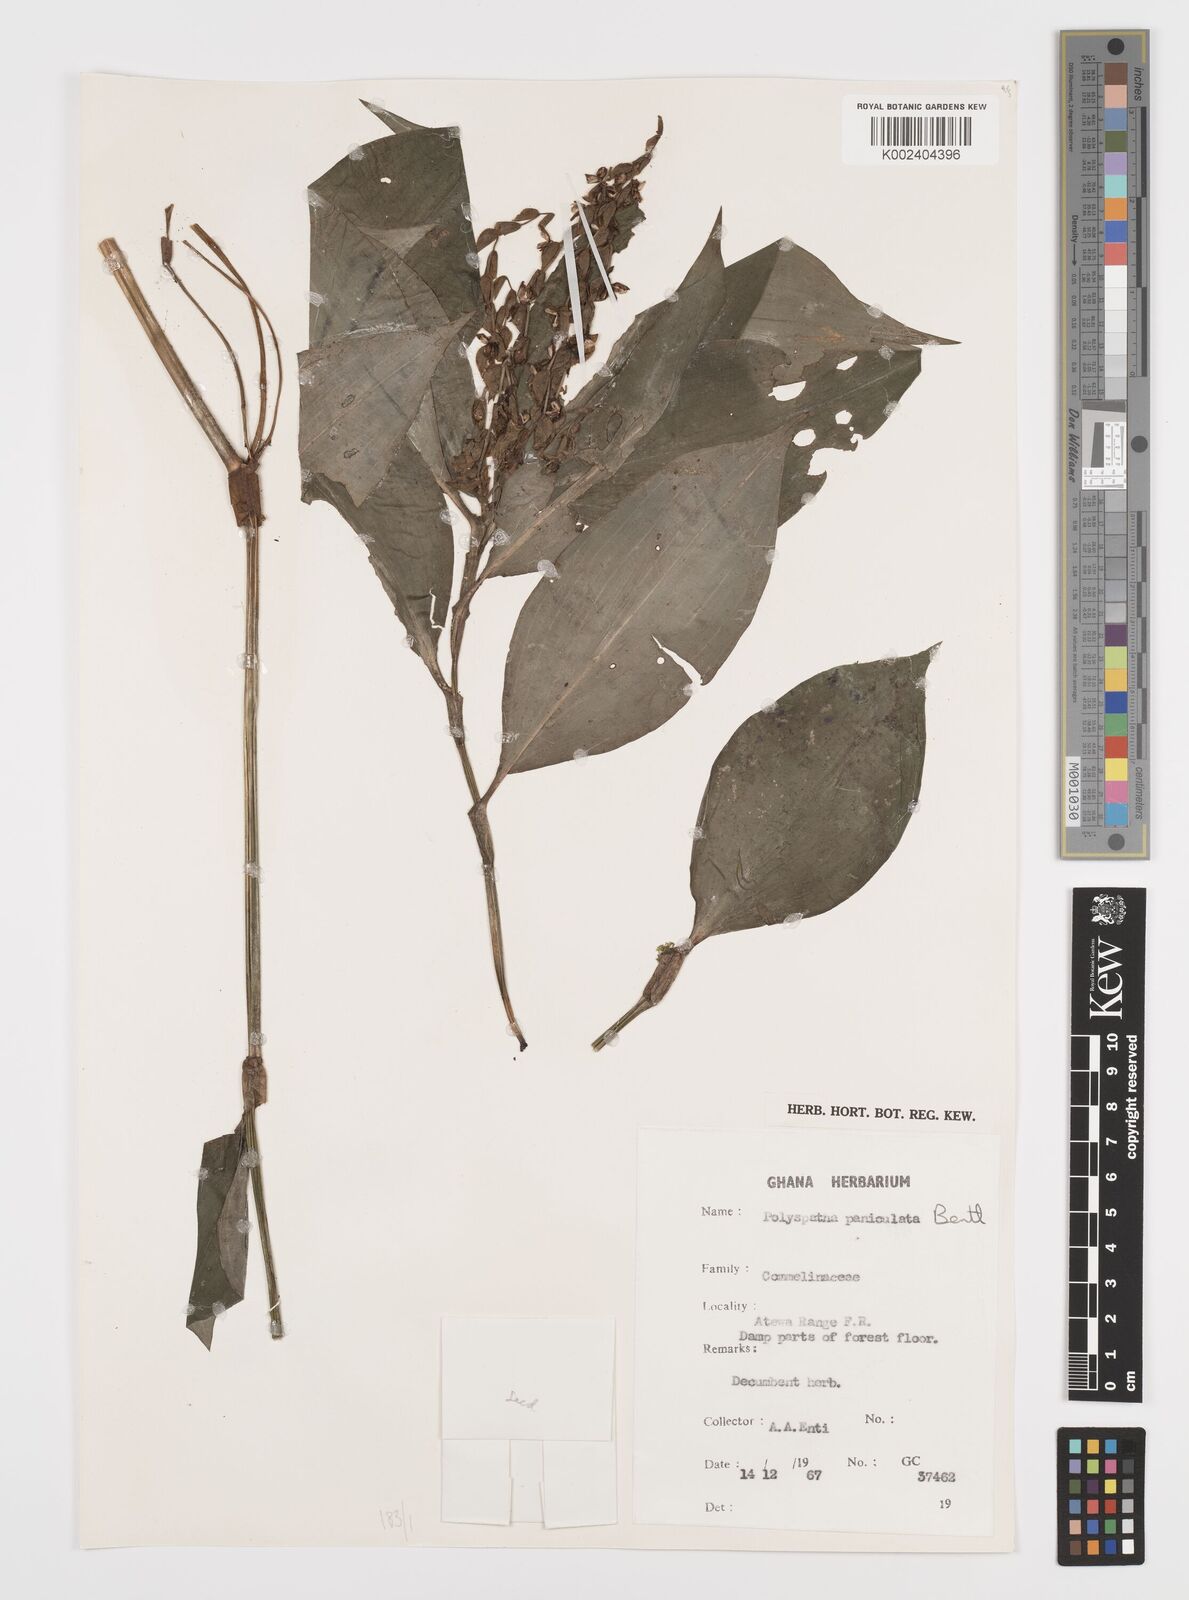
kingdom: Plantae
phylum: Tracheophyta
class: Liliopsida
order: Commelinales
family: Commelinaceae
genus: Polyspatha
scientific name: Polyspatha paniculata
